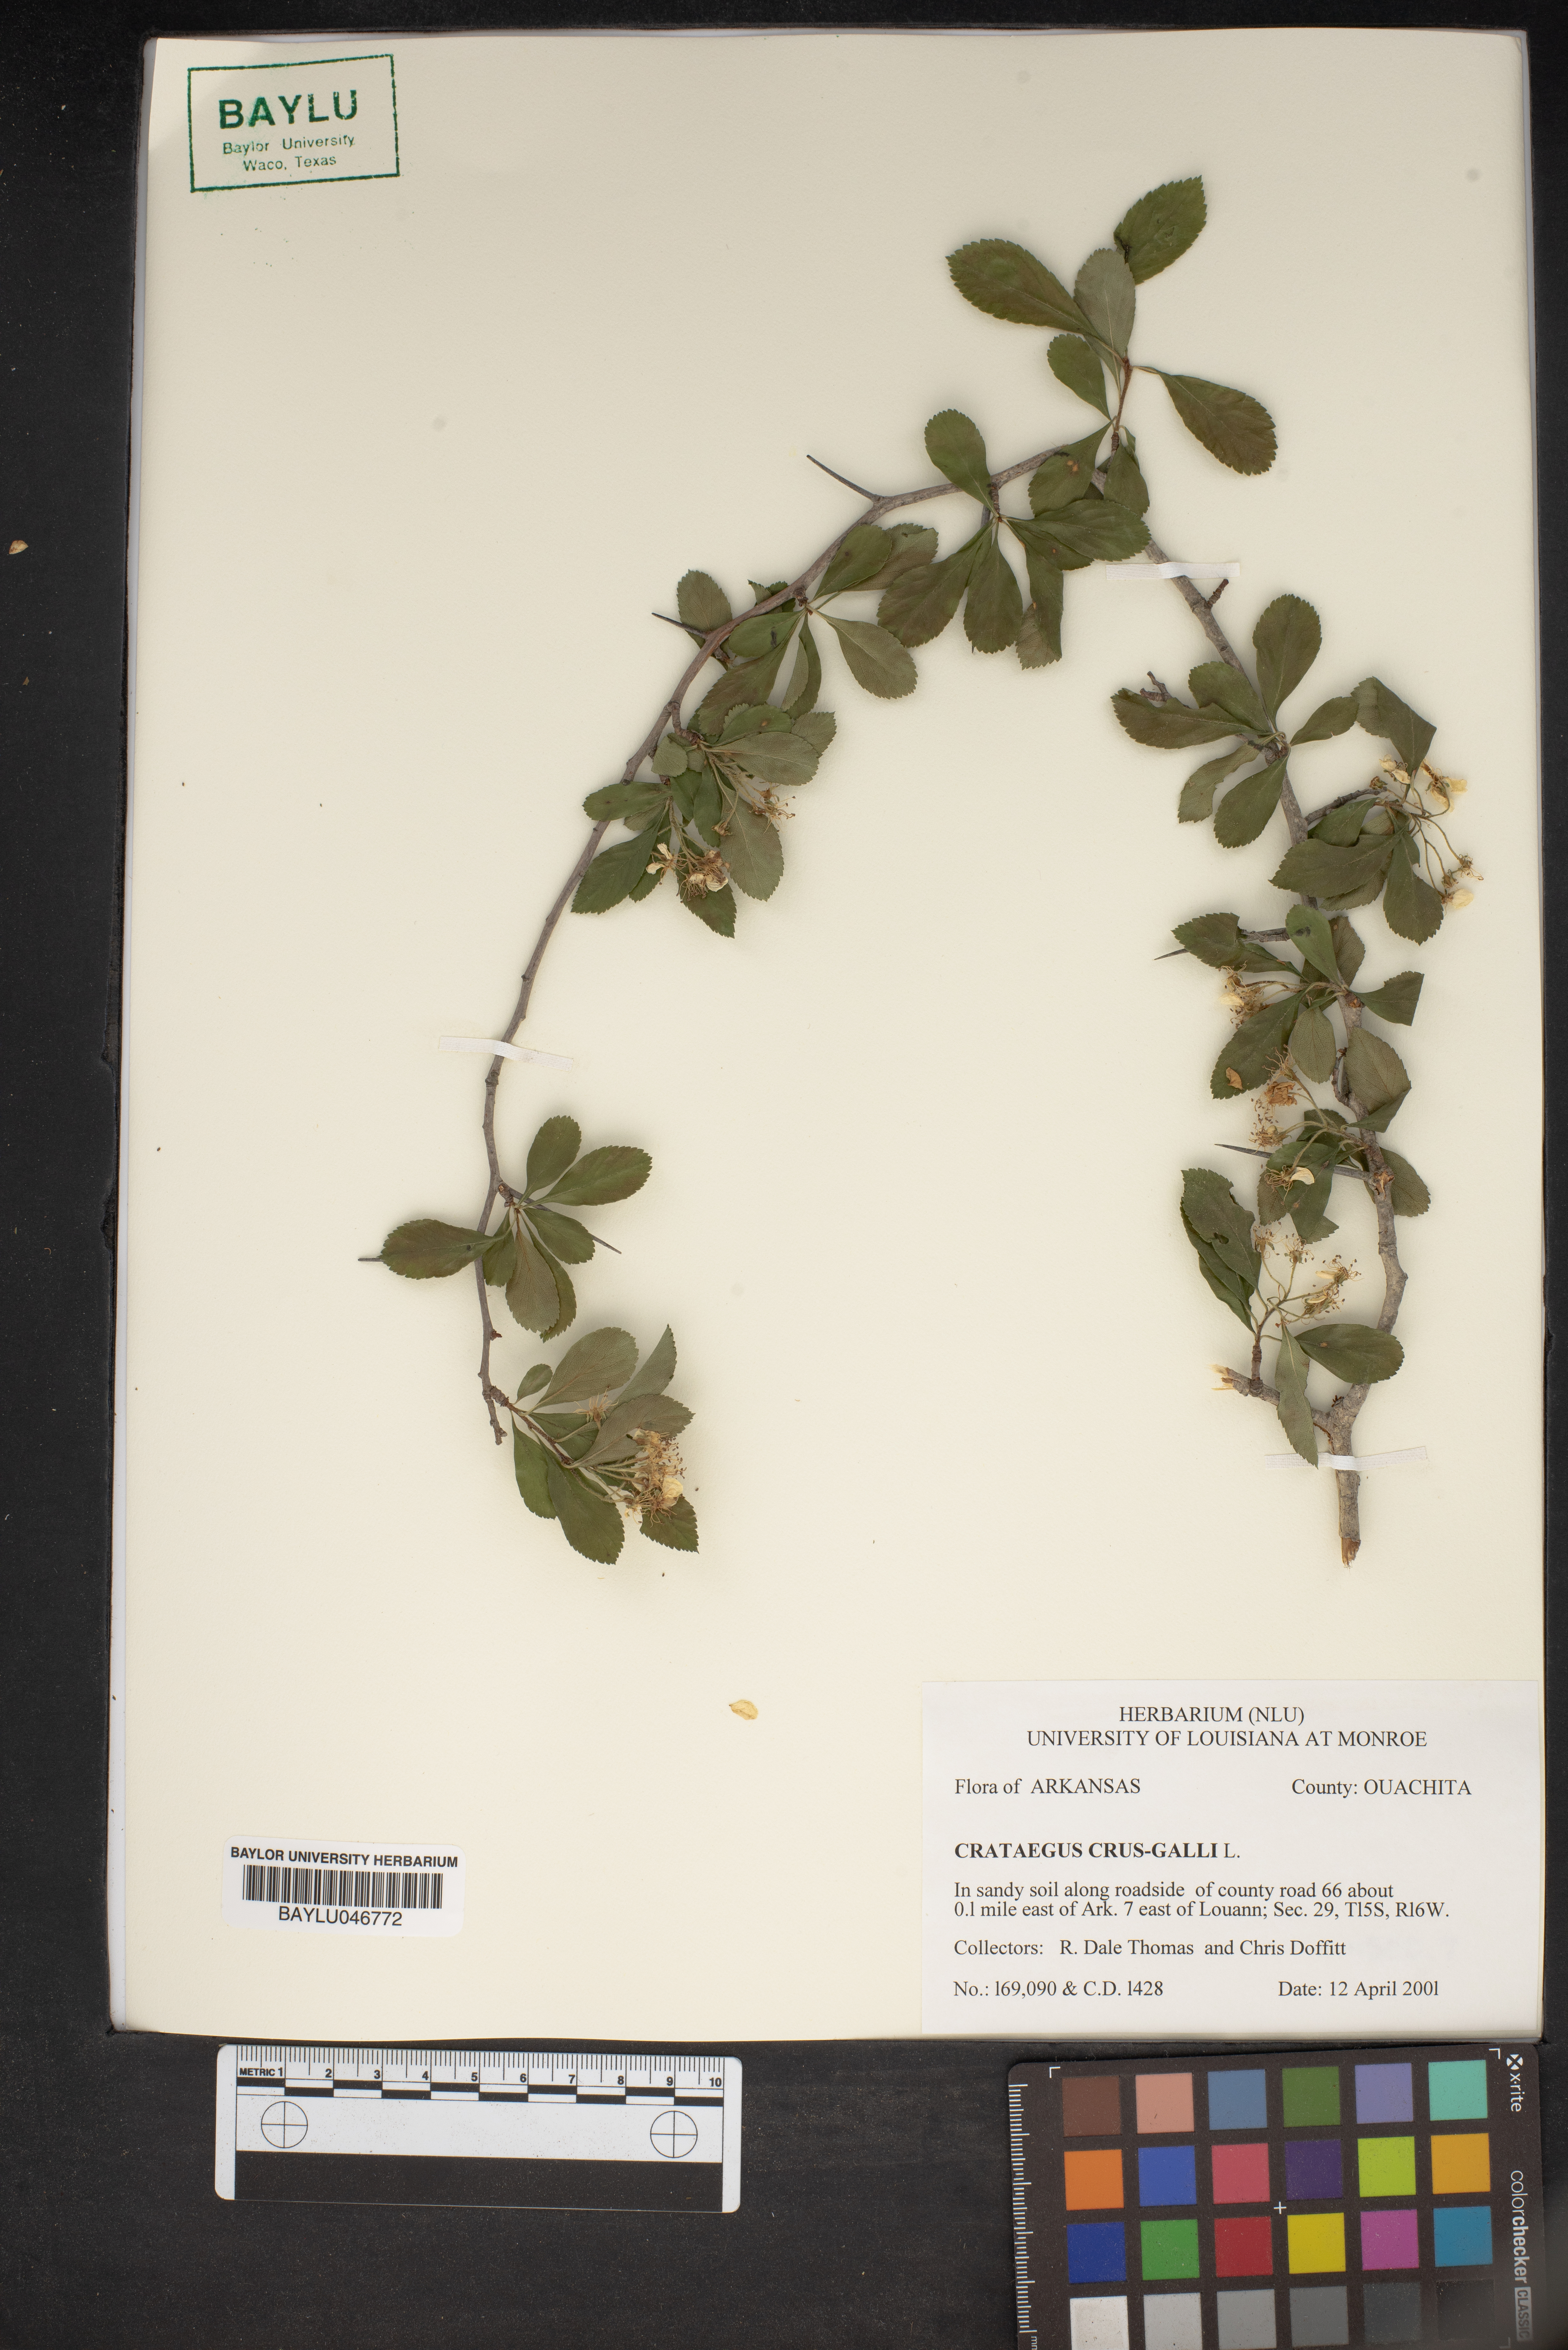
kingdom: Plantae
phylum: Tracheophyta
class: Magnoliopsida
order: Rosales
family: Rosaceae
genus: Crataegus
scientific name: Crataegus crus-galli
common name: Cockspurthorn
